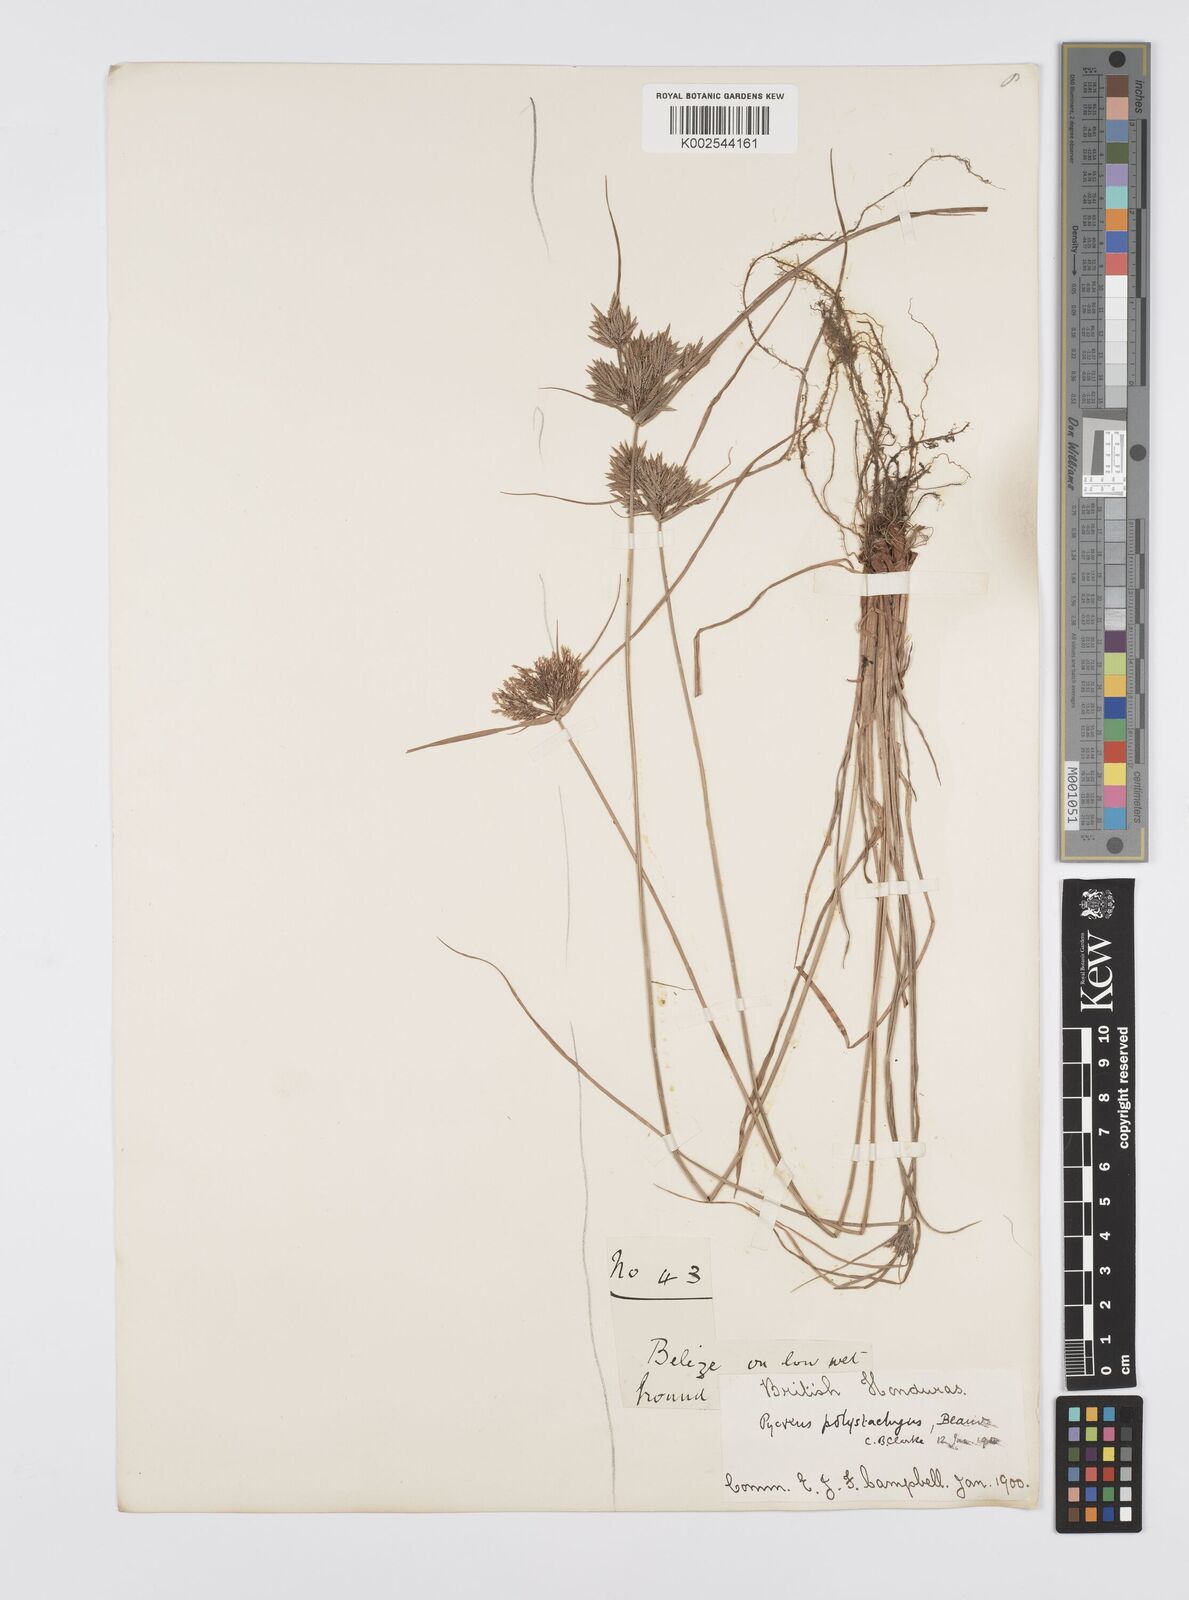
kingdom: Plantae
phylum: Tracheophyta
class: Liliopsida
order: Poales
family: Cyperaceae
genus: Cyperus
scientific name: Cyperus polystachyos
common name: Bunchy flat sedge
